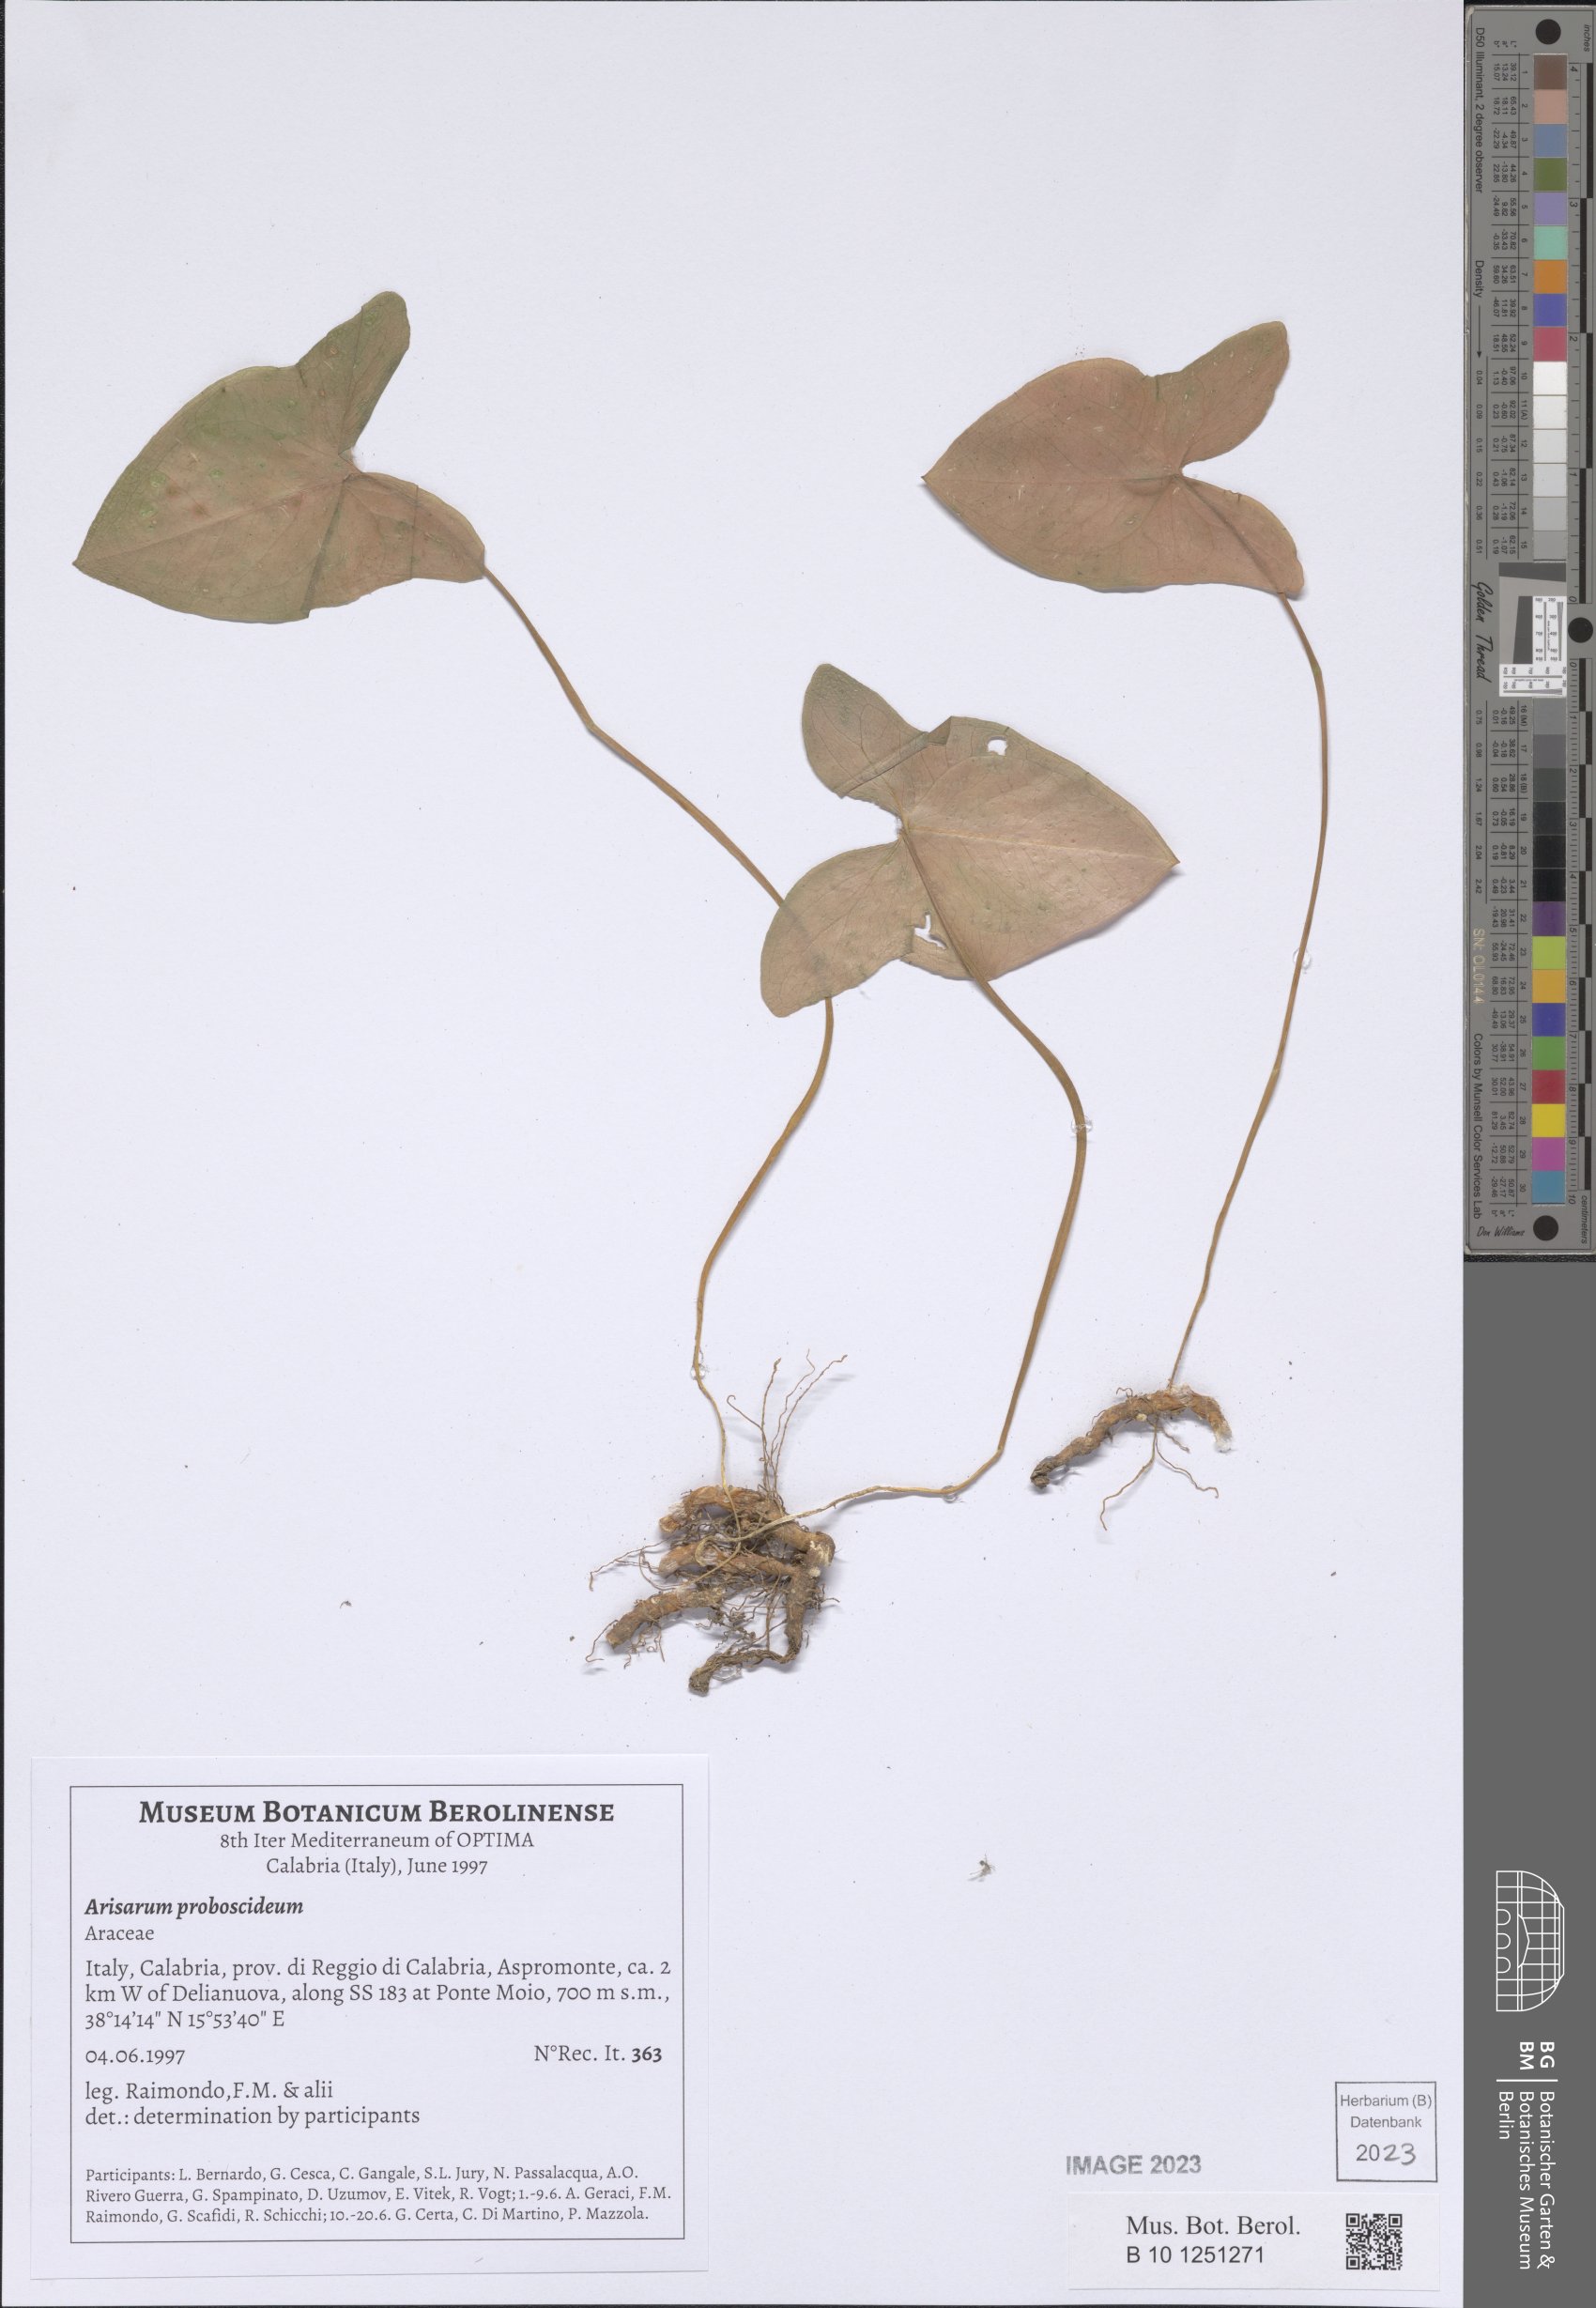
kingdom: Plantae
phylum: Tracheophyta
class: Liliopsida
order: Alismatales
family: Araceae
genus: Arisarum
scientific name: Arisarum proboscideum
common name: Mousetailplant
